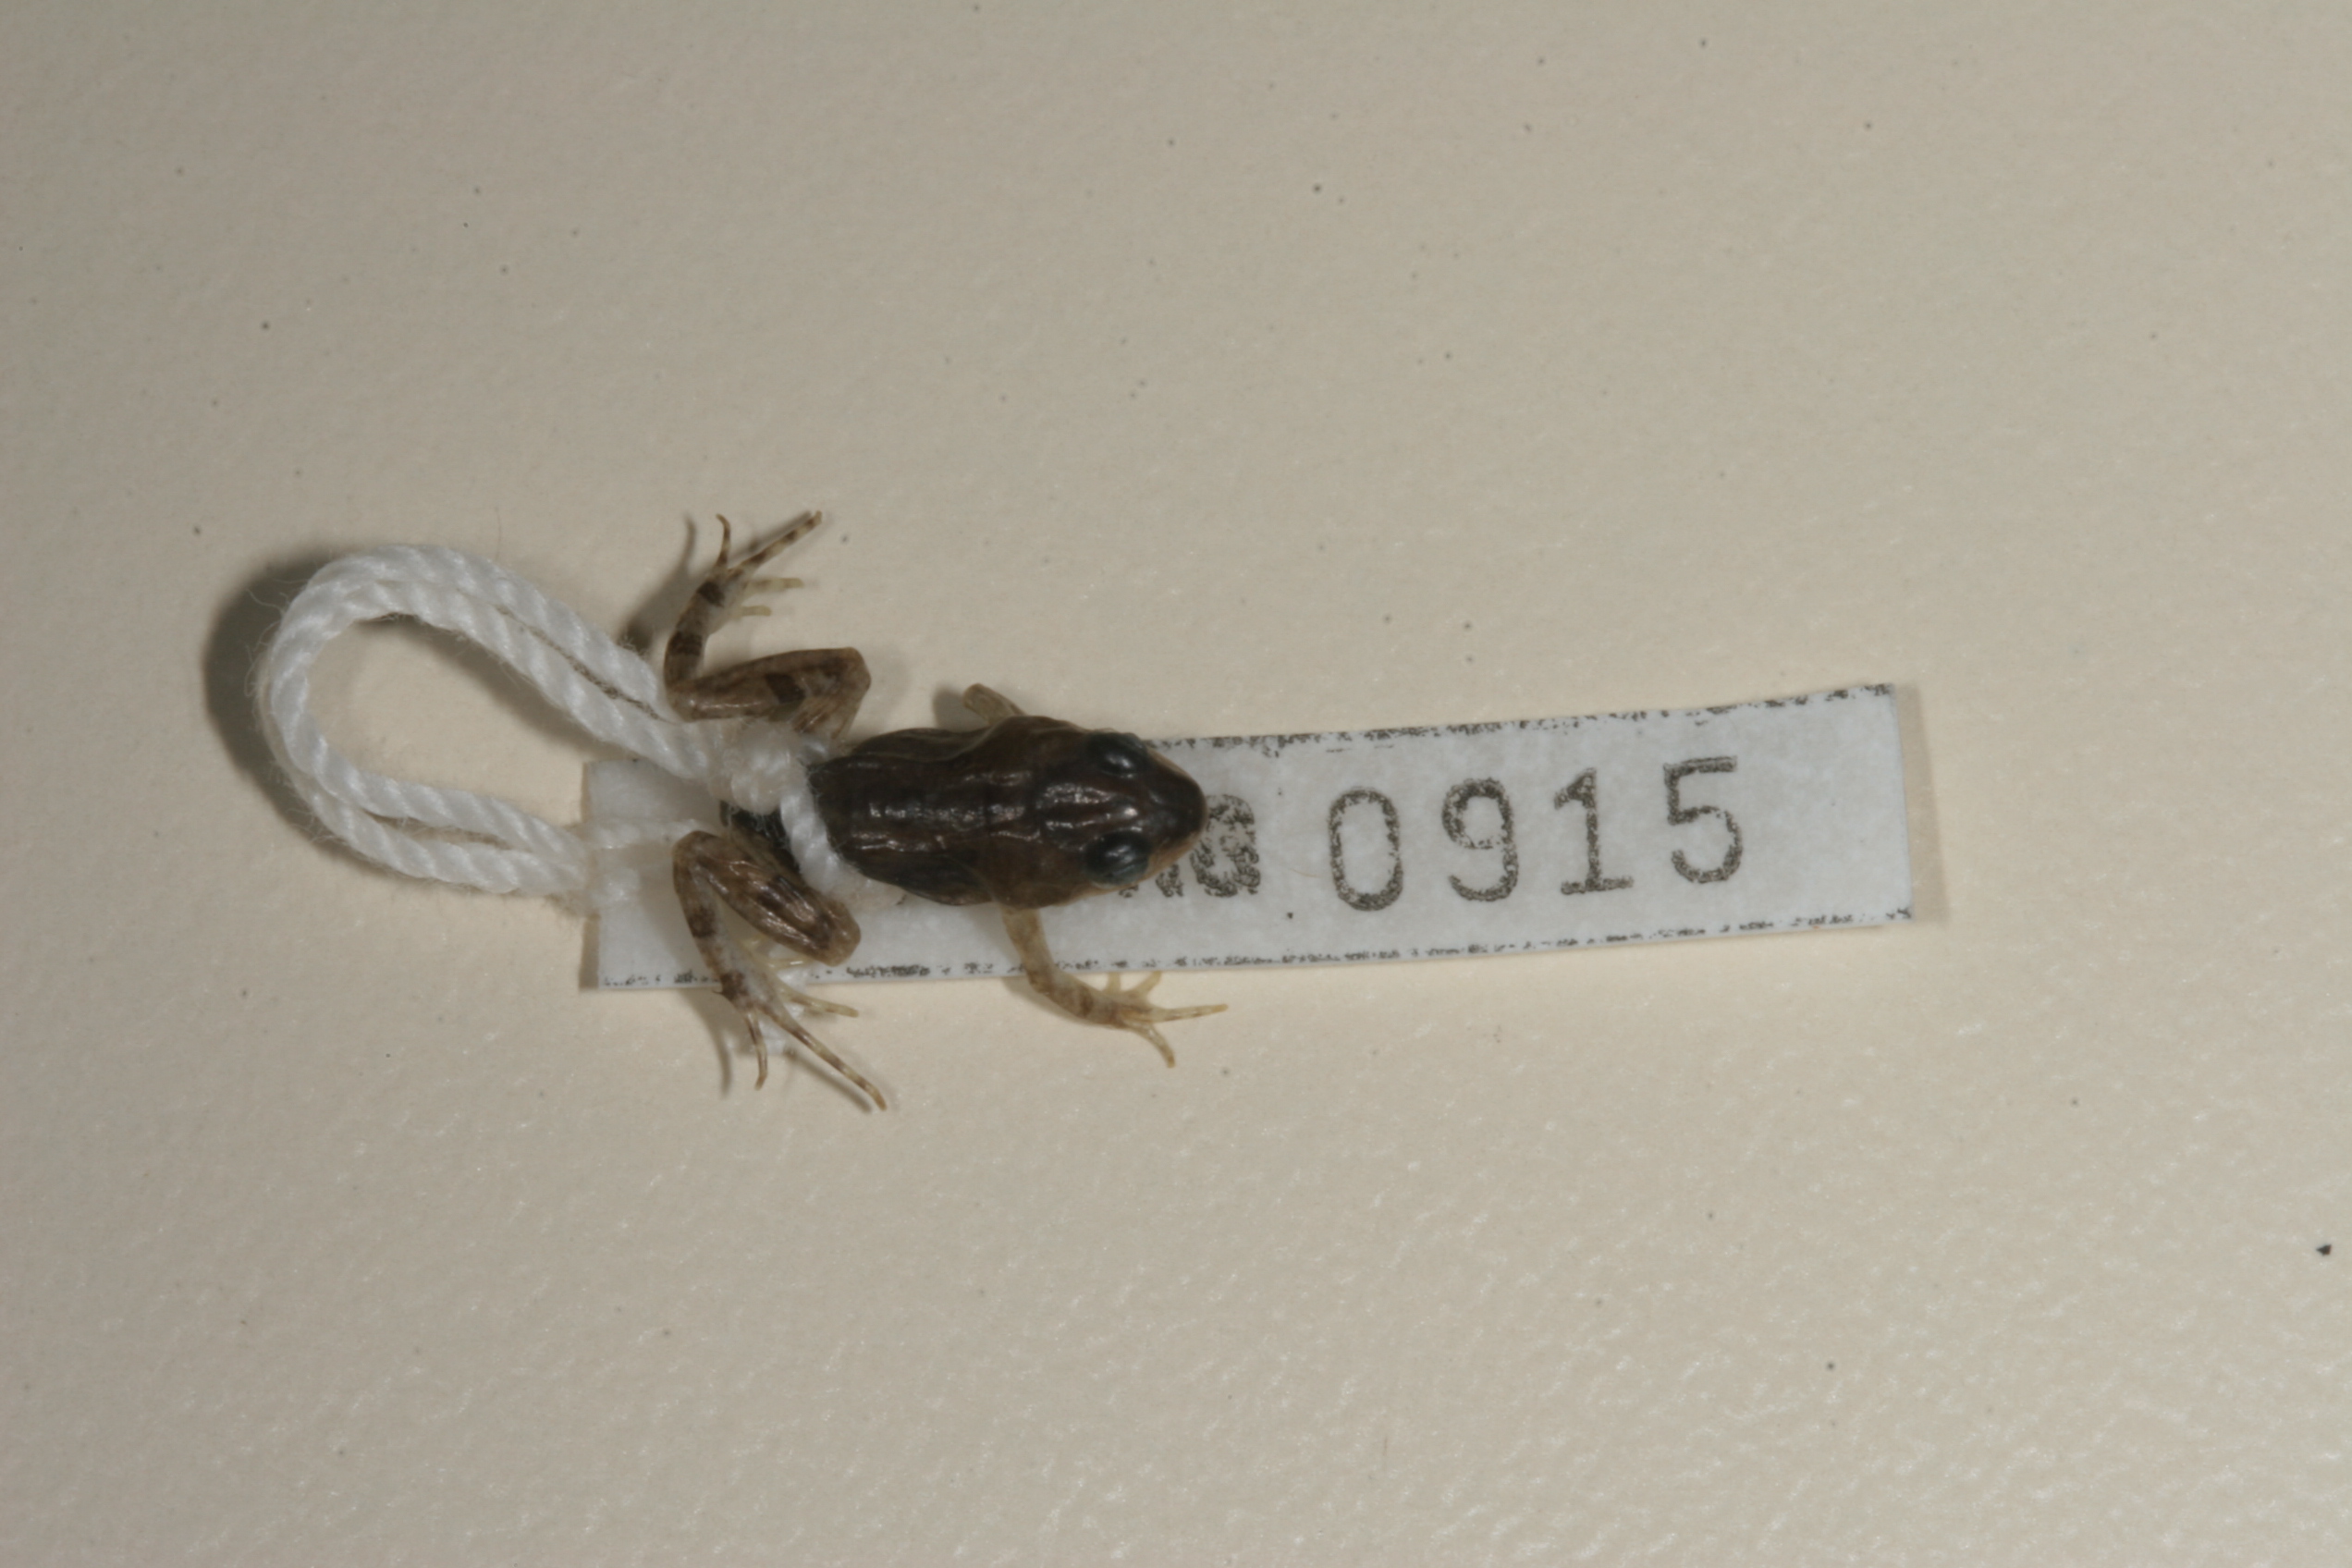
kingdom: Animalia
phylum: Chordata
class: Amphibia
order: Anura
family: Pyxicephalidae
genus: Cacosternum
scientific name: Cacosternum boettgeri
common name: Boettger's frog
